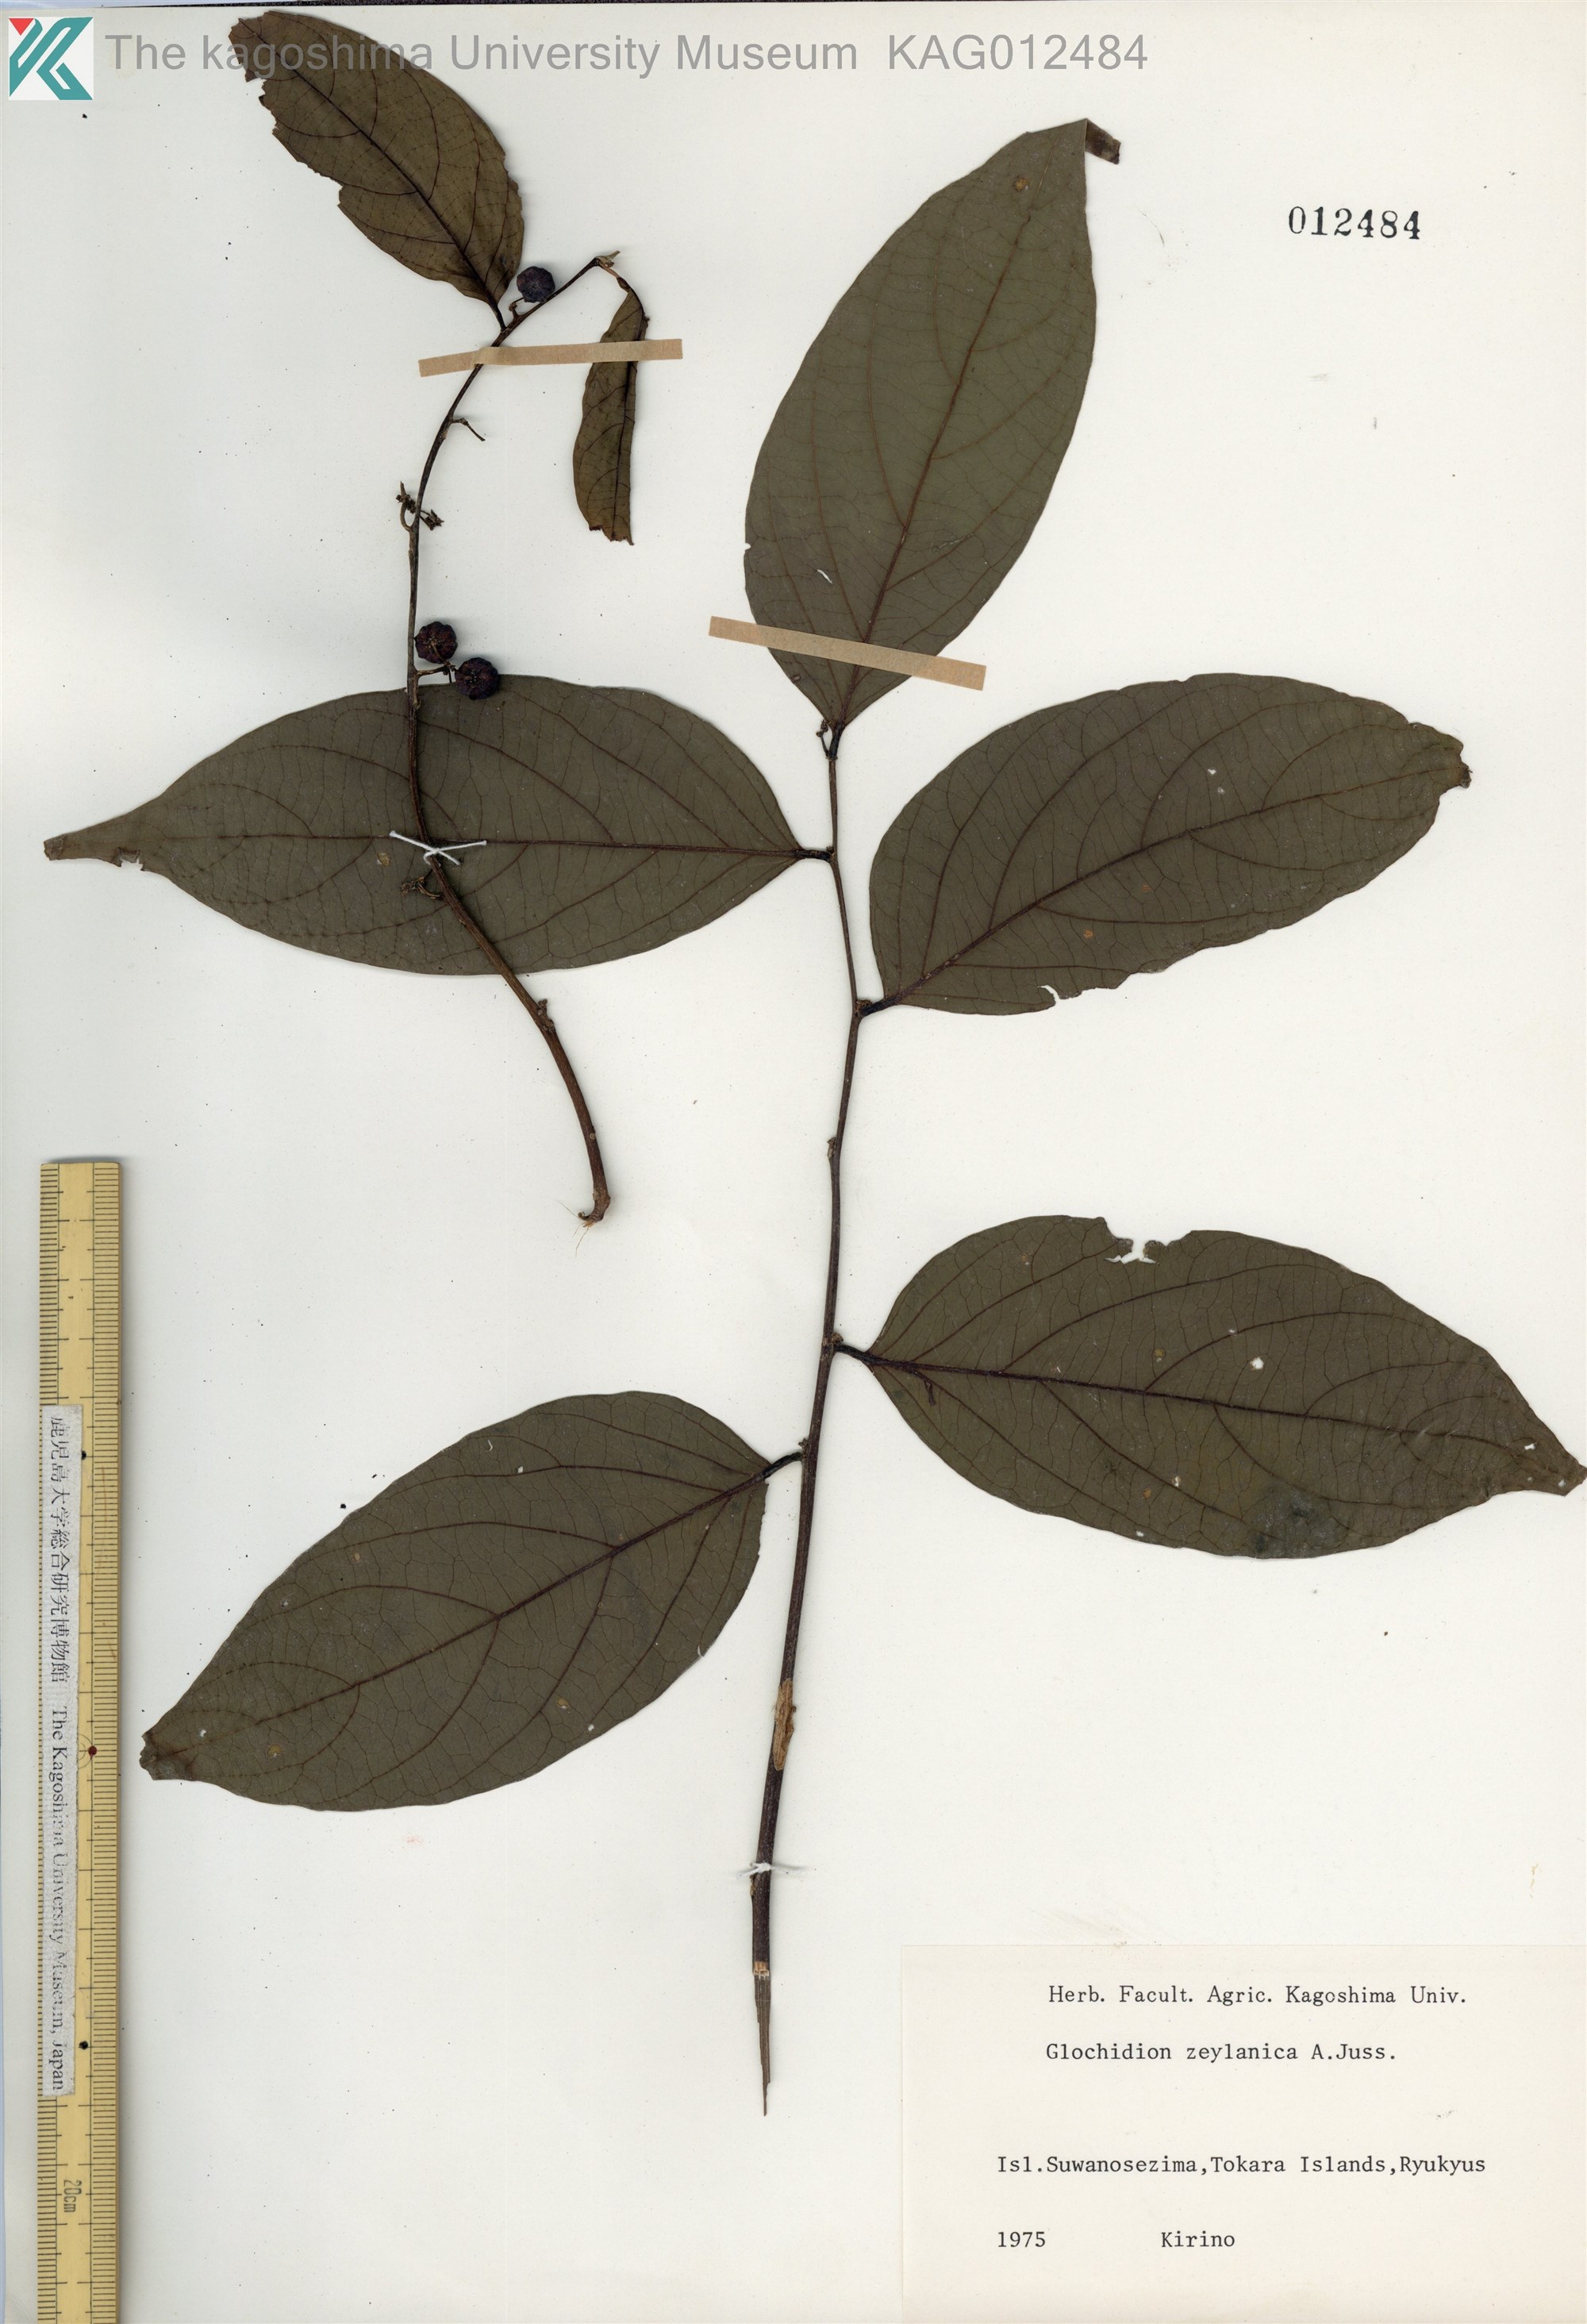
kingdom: Plantae
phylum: Tracheophyta
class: Magnoliopsida
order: Malpighiales
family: Phyllanthaceae
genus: Glochidion
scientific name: Glochidion zeylanicum
